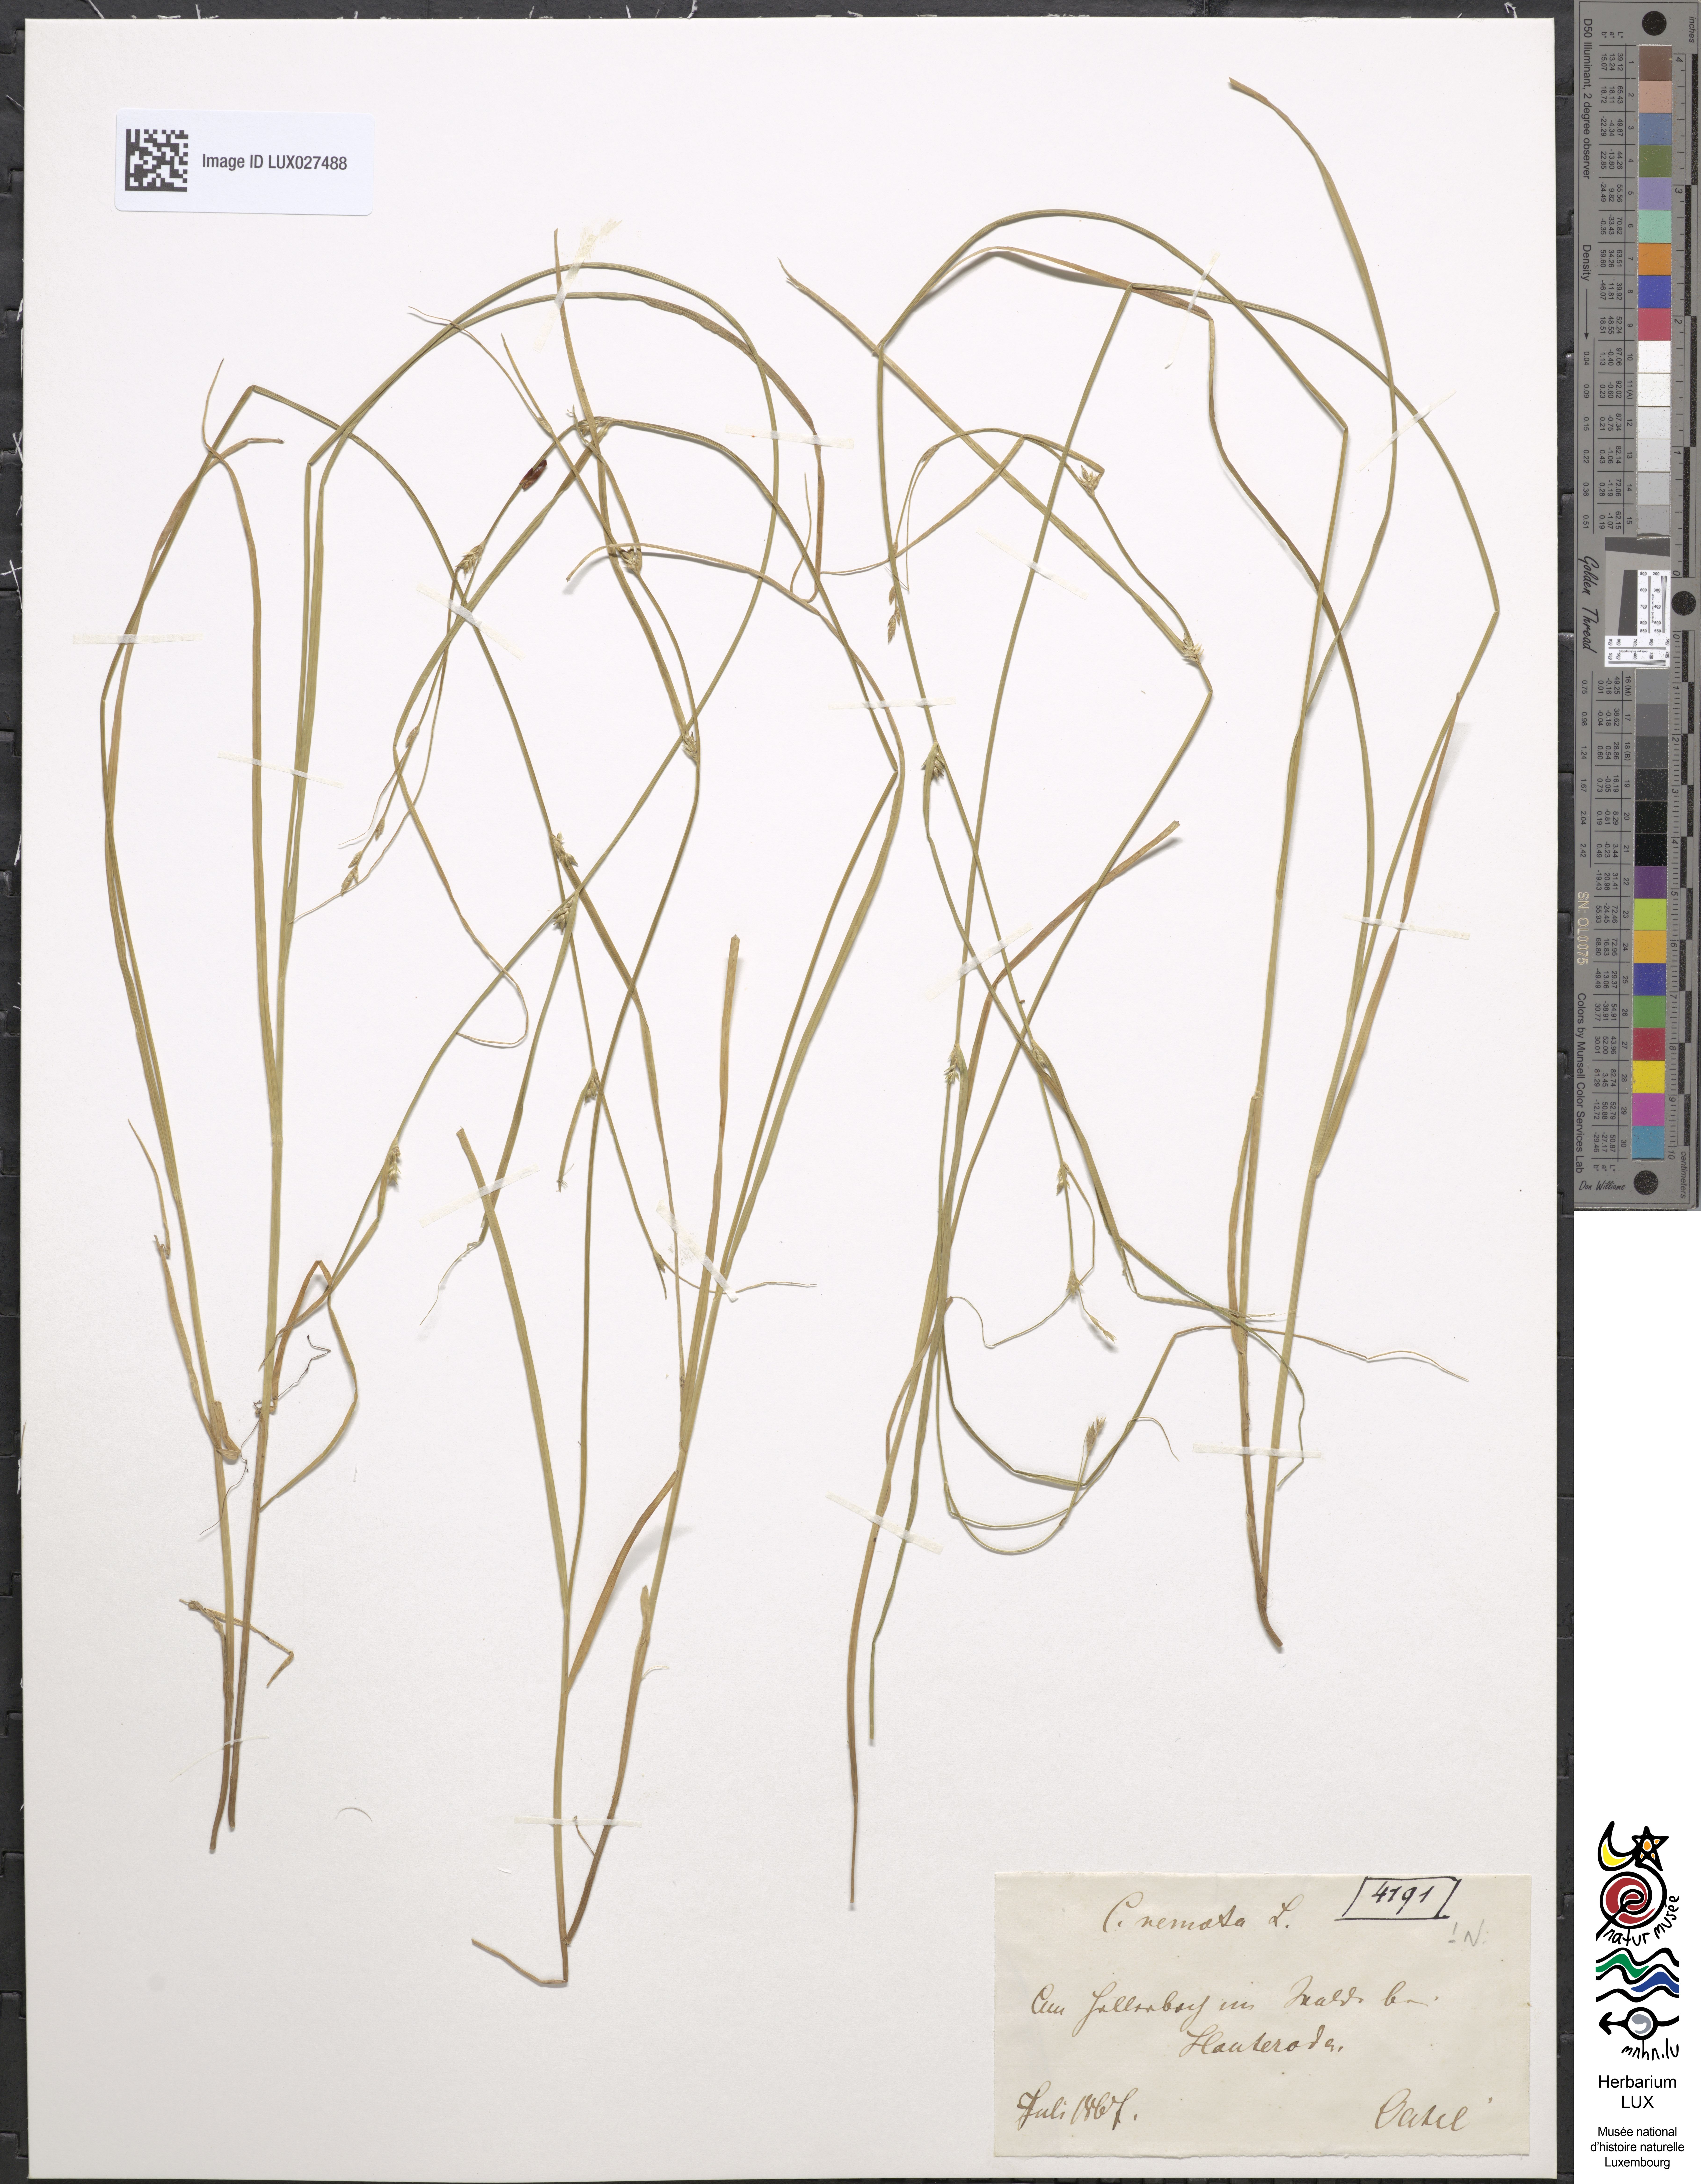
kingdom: Plantae
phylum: Tracheophyta
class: Liliopsida
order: Poales
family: Cyperaceae
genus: Carex
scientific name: Carex remota
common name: Remote sedge
